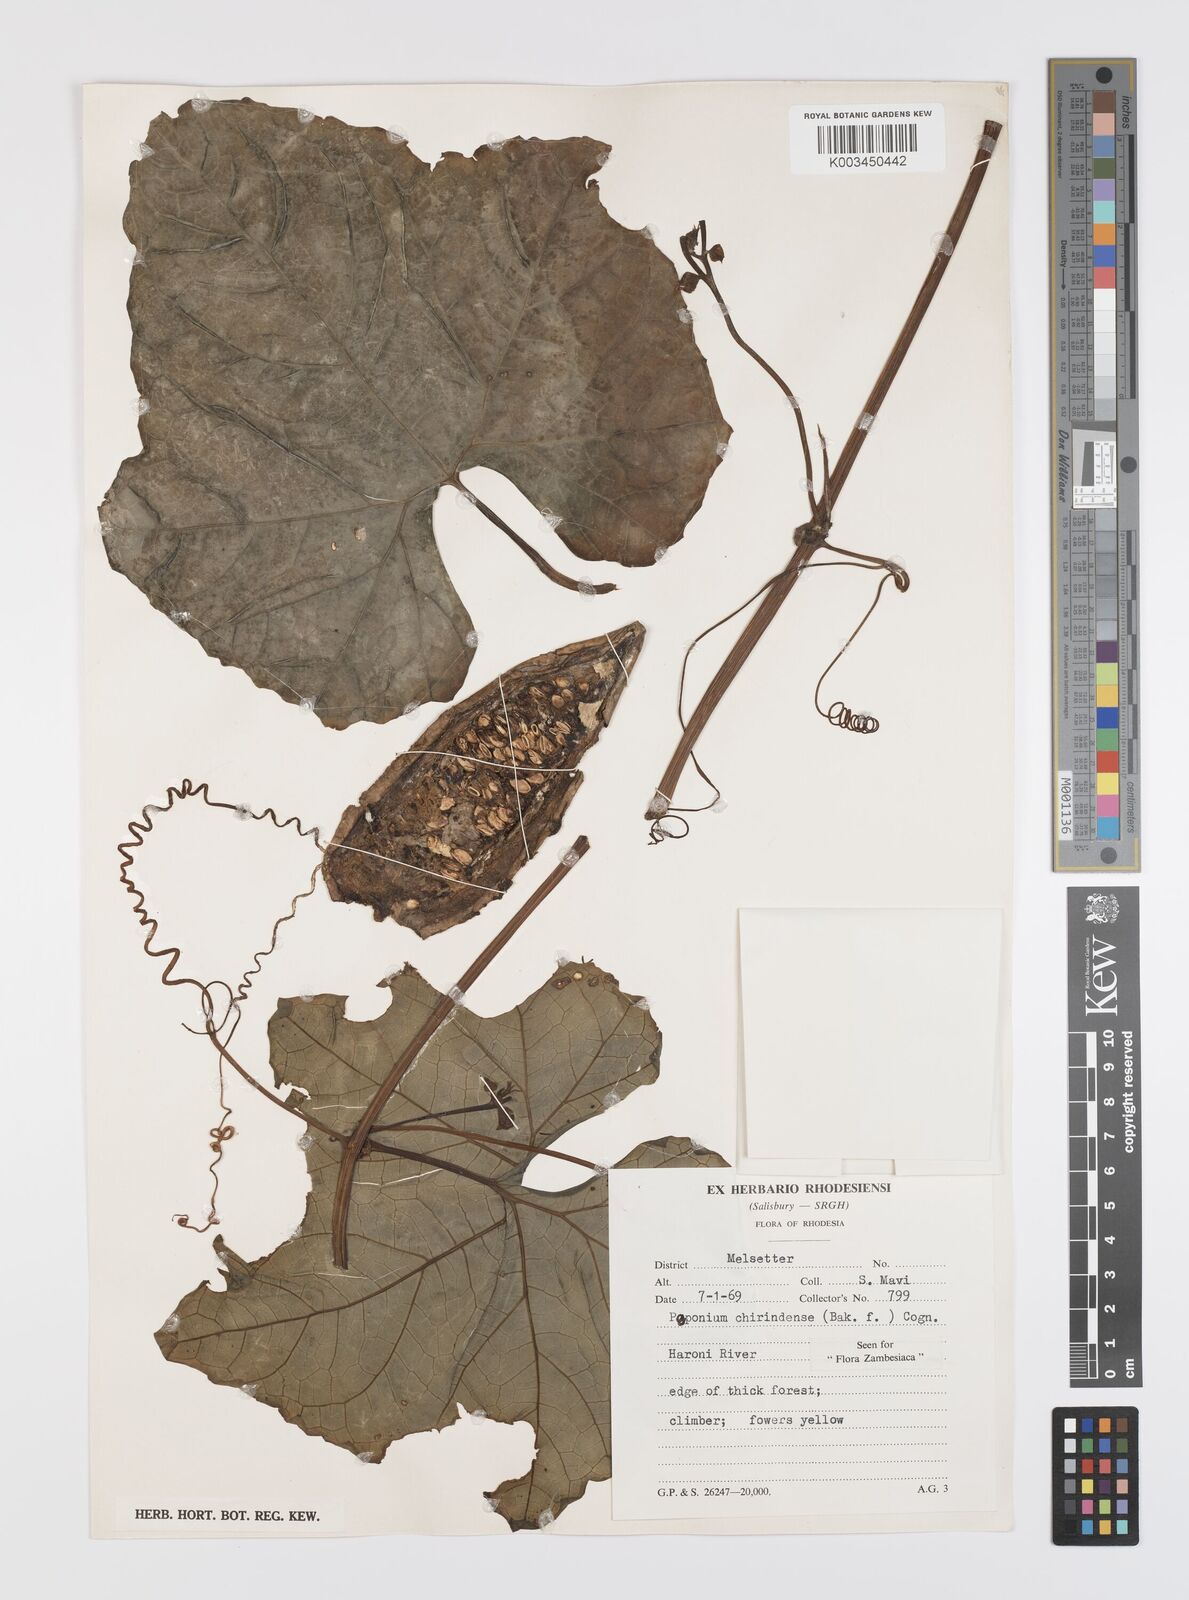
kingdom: Plantae
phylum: Tracheophyta
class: Magnoliopsida
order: Cucurbitales
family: Cucurbitaceae
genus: Peponium
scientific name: Peponium chirindense
